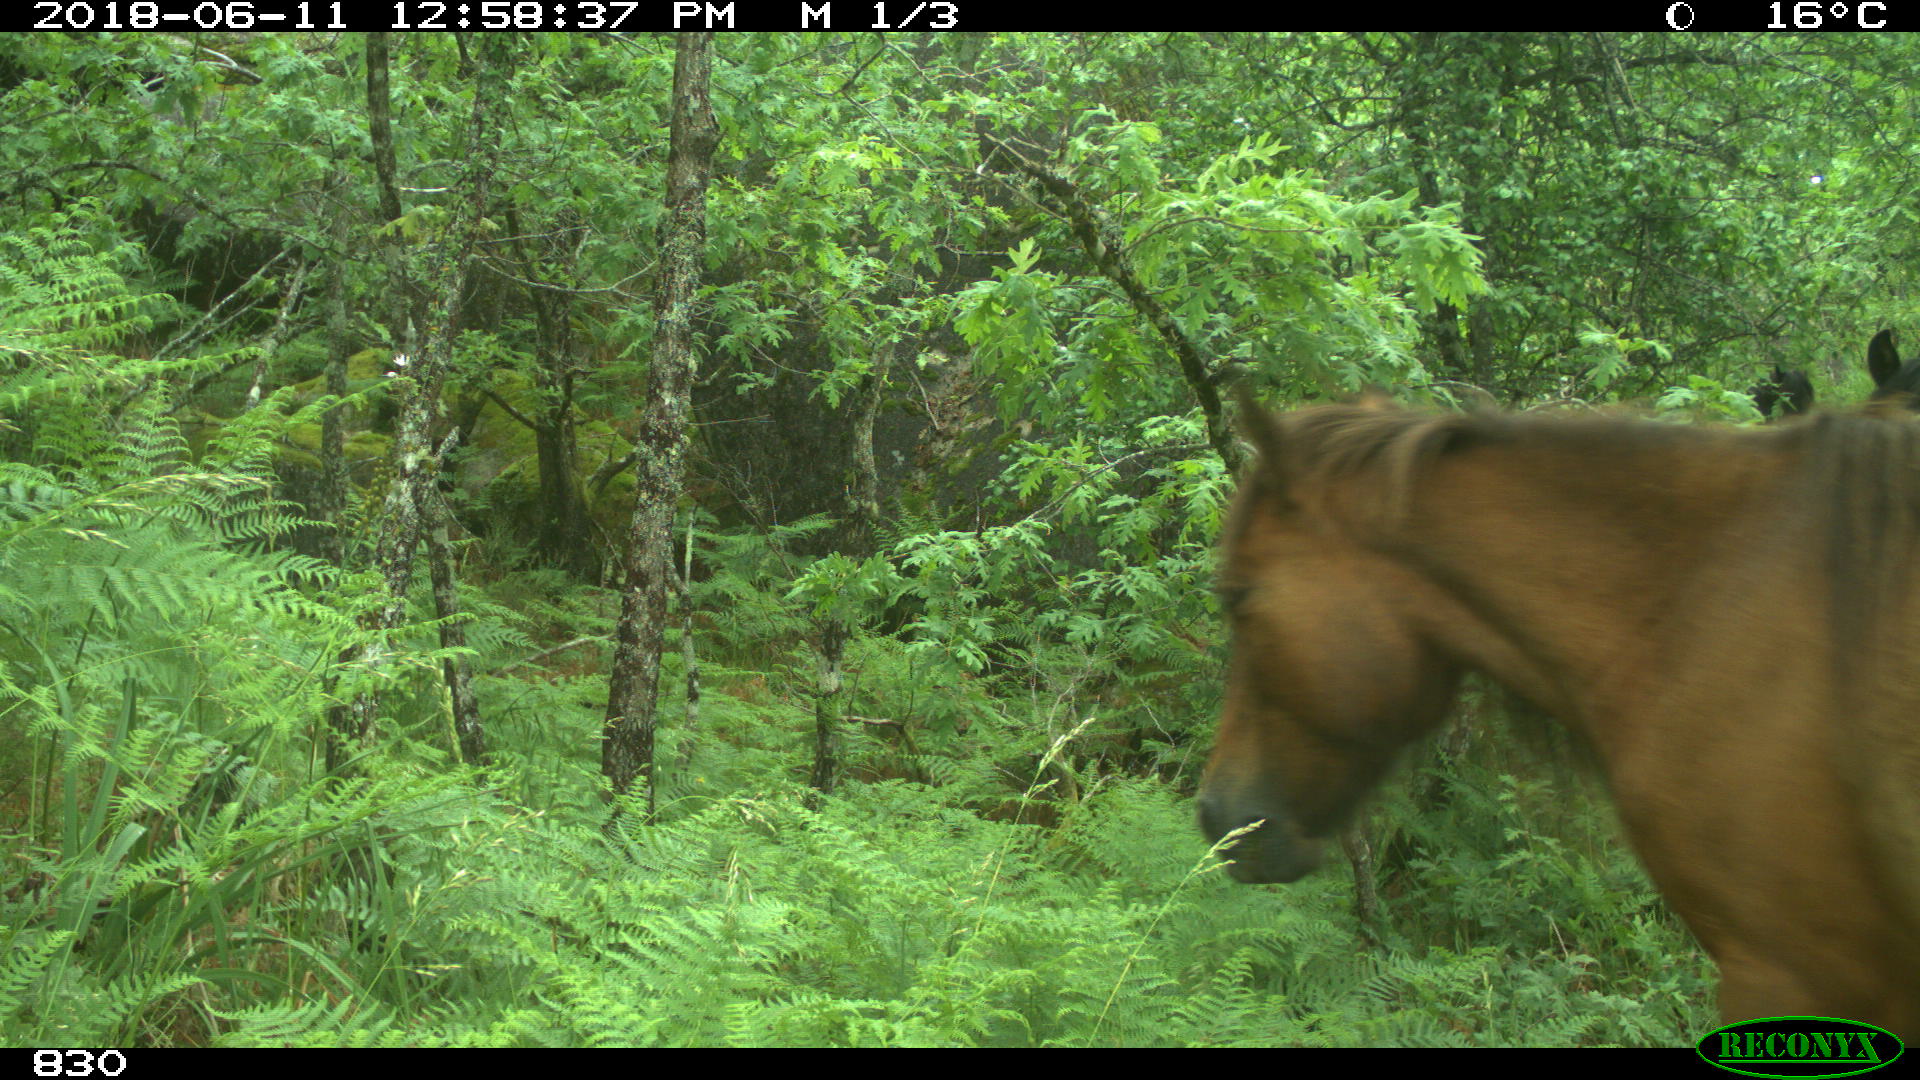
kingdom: Animalia
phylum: Chordata
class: Mammalia
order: Perissodactyla
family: Equidae
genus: Equus
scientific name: Equus caballus
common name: Horse
